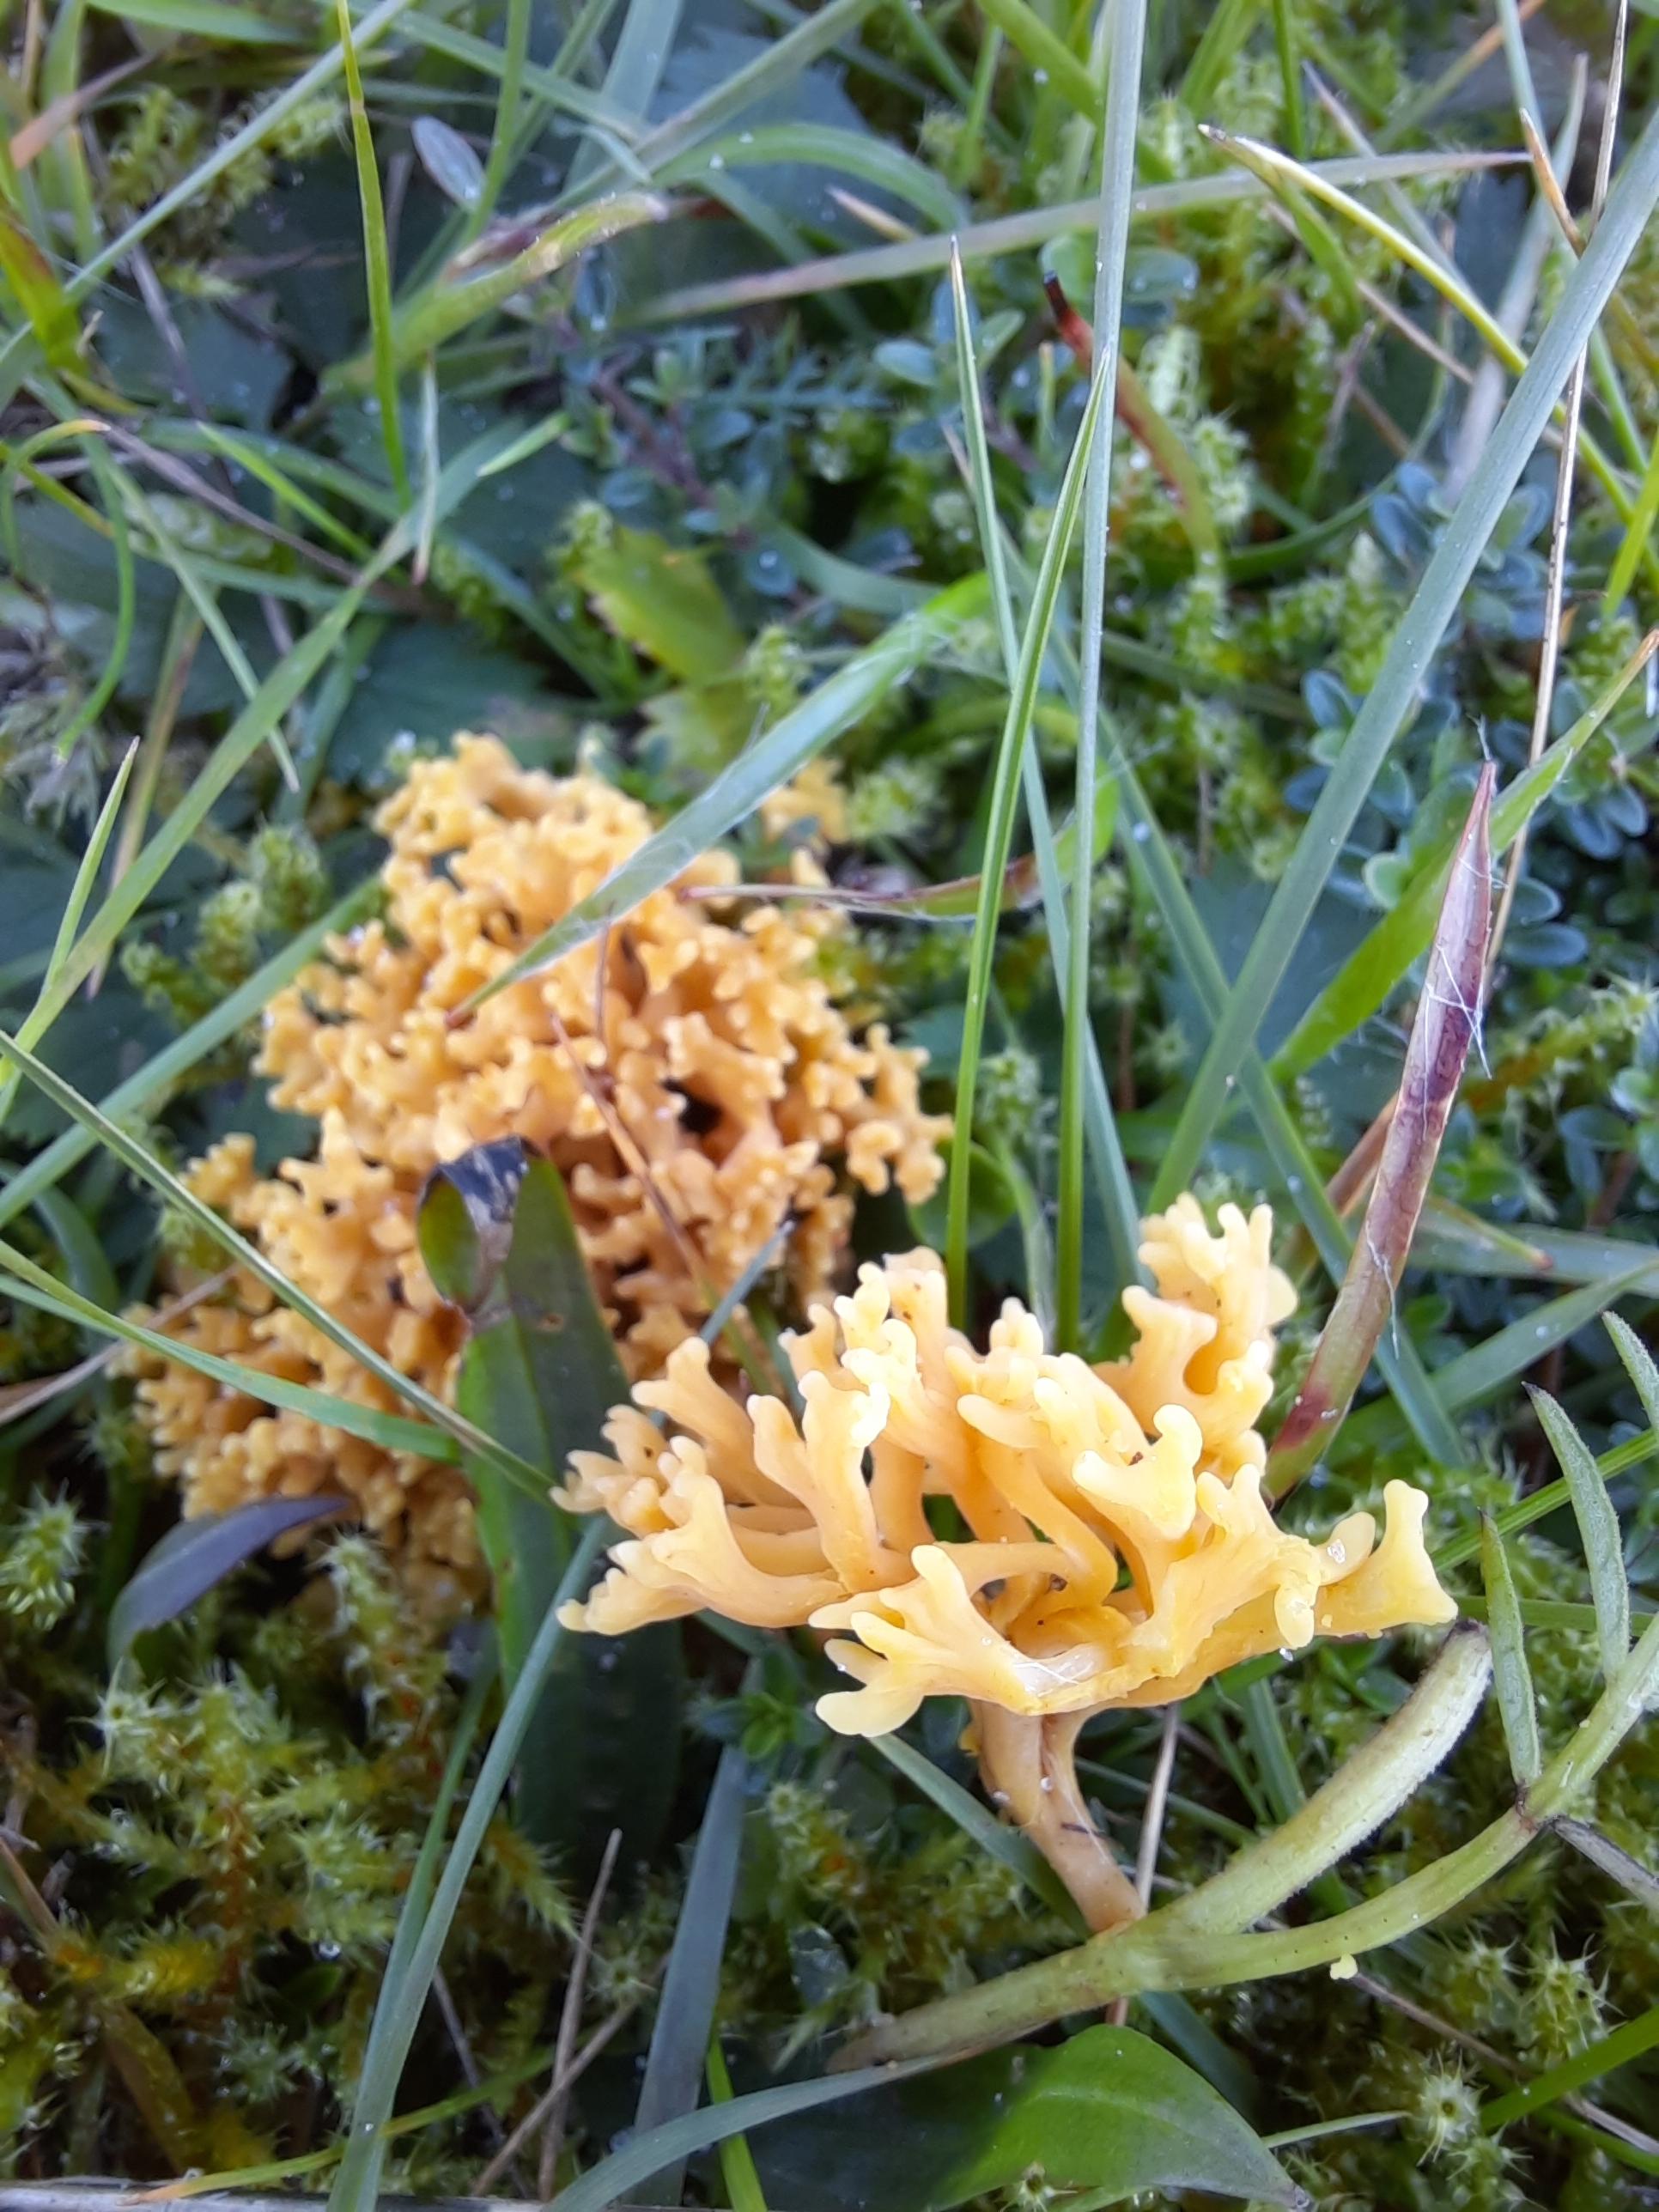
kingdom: Fungi
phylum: Basidiomycota
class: Agaricomycetes
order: Agaricales
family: Clavariaceae
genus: Clavulinopsis
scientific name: Clavulinopsis corniculata
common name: eng-køllesvamp
